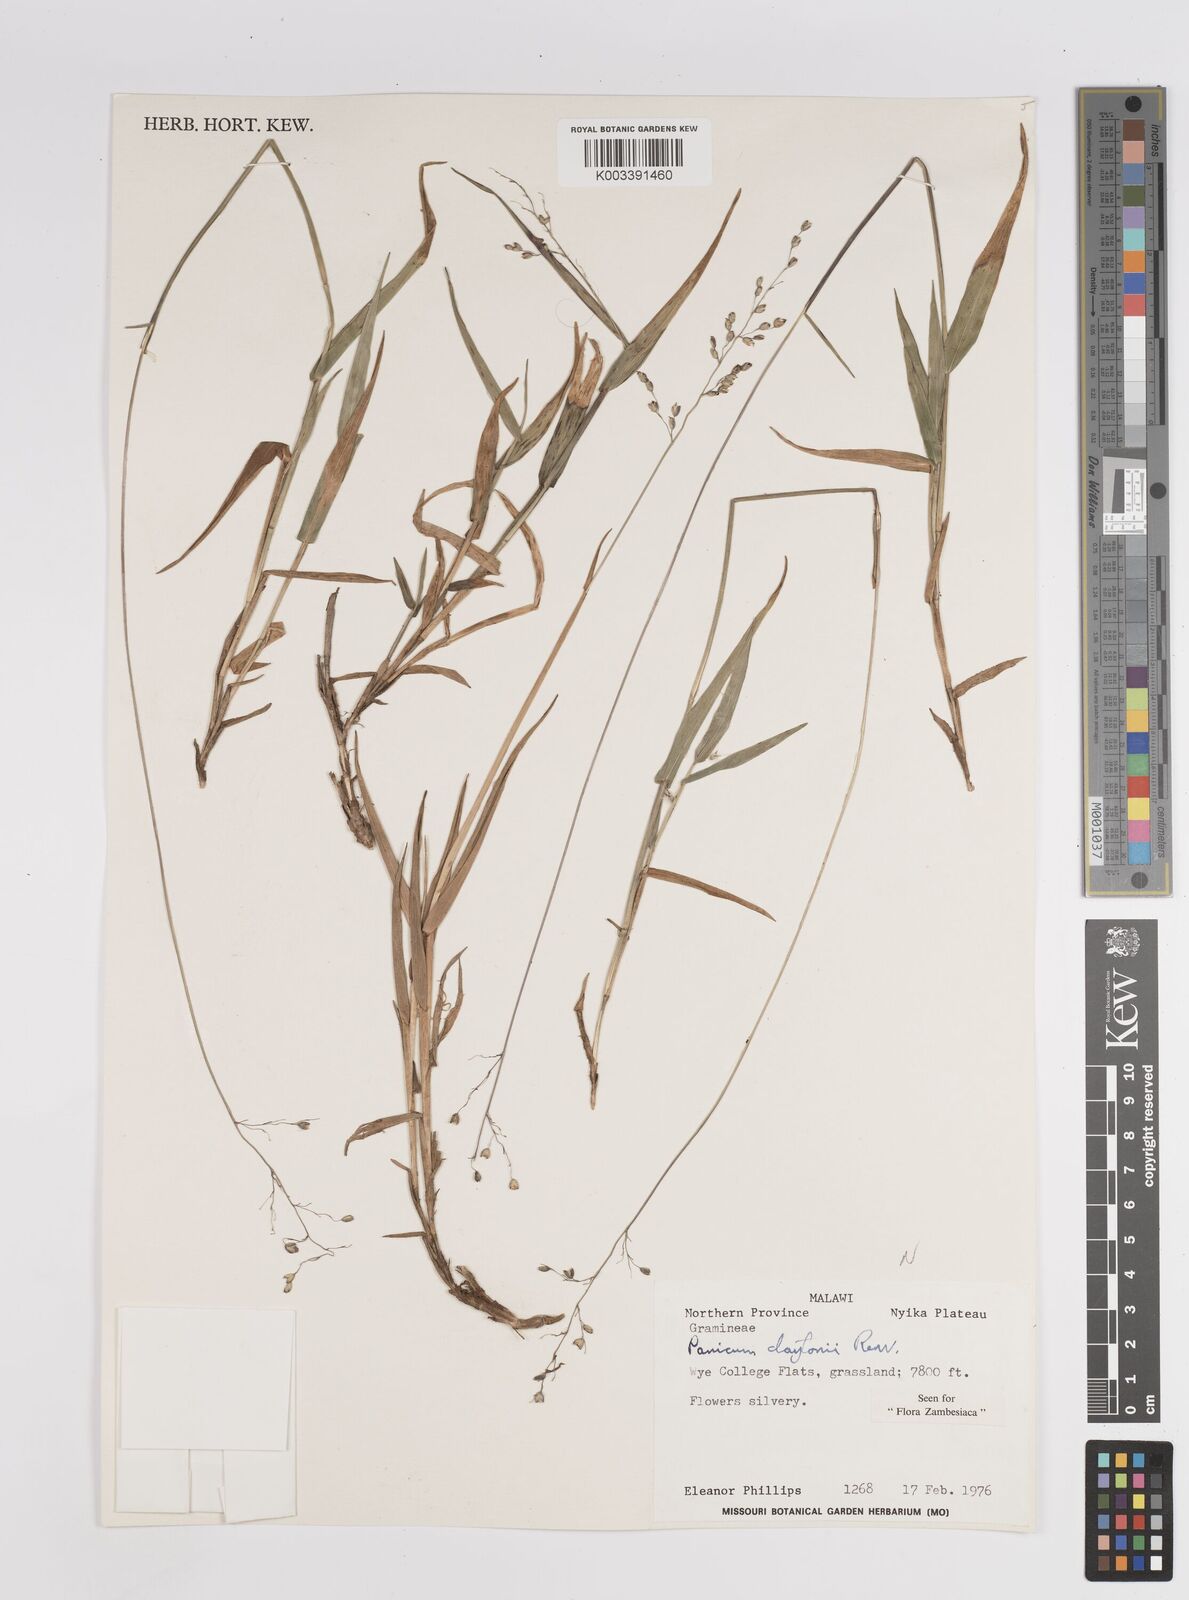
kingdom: Plantae
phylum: Tracheophyta
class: Liliopsida
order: Poales
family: Poaceae
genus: Adenochloa
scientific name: Adenochloa claytonii
